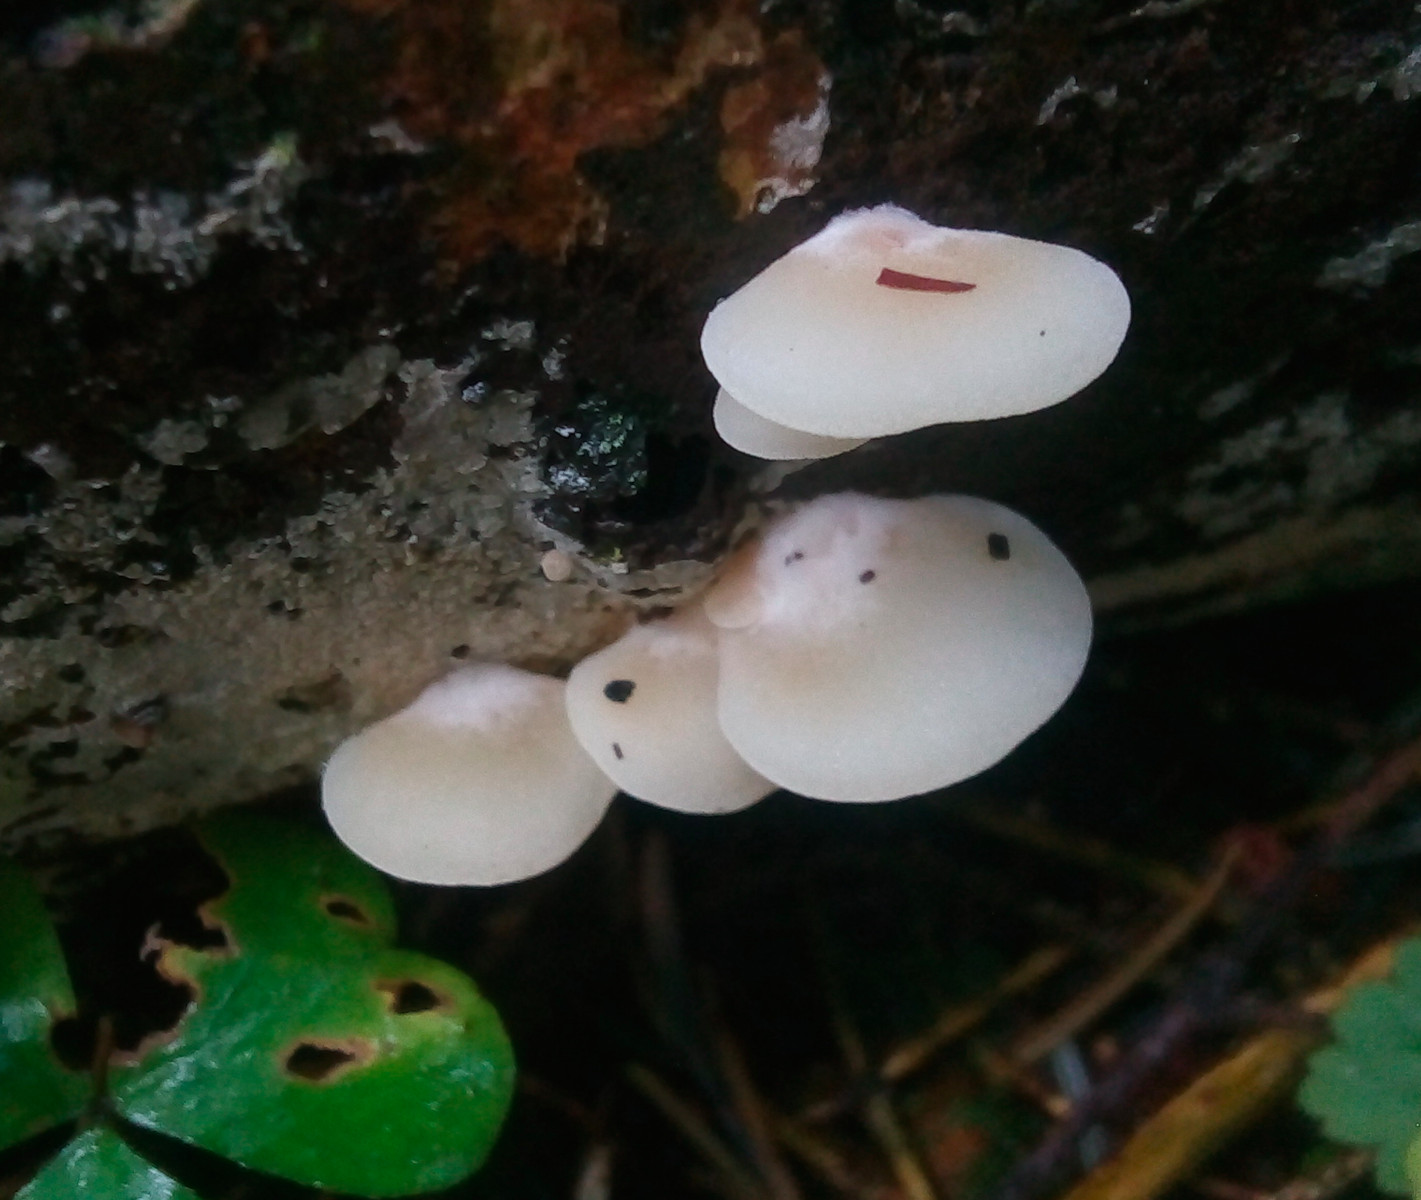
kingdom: Fungi
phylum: Basidiomycota
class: Agaricomycetes
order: Agaricales
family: Crepidotaceae
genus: Crepidotus
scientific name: Crepidotus
